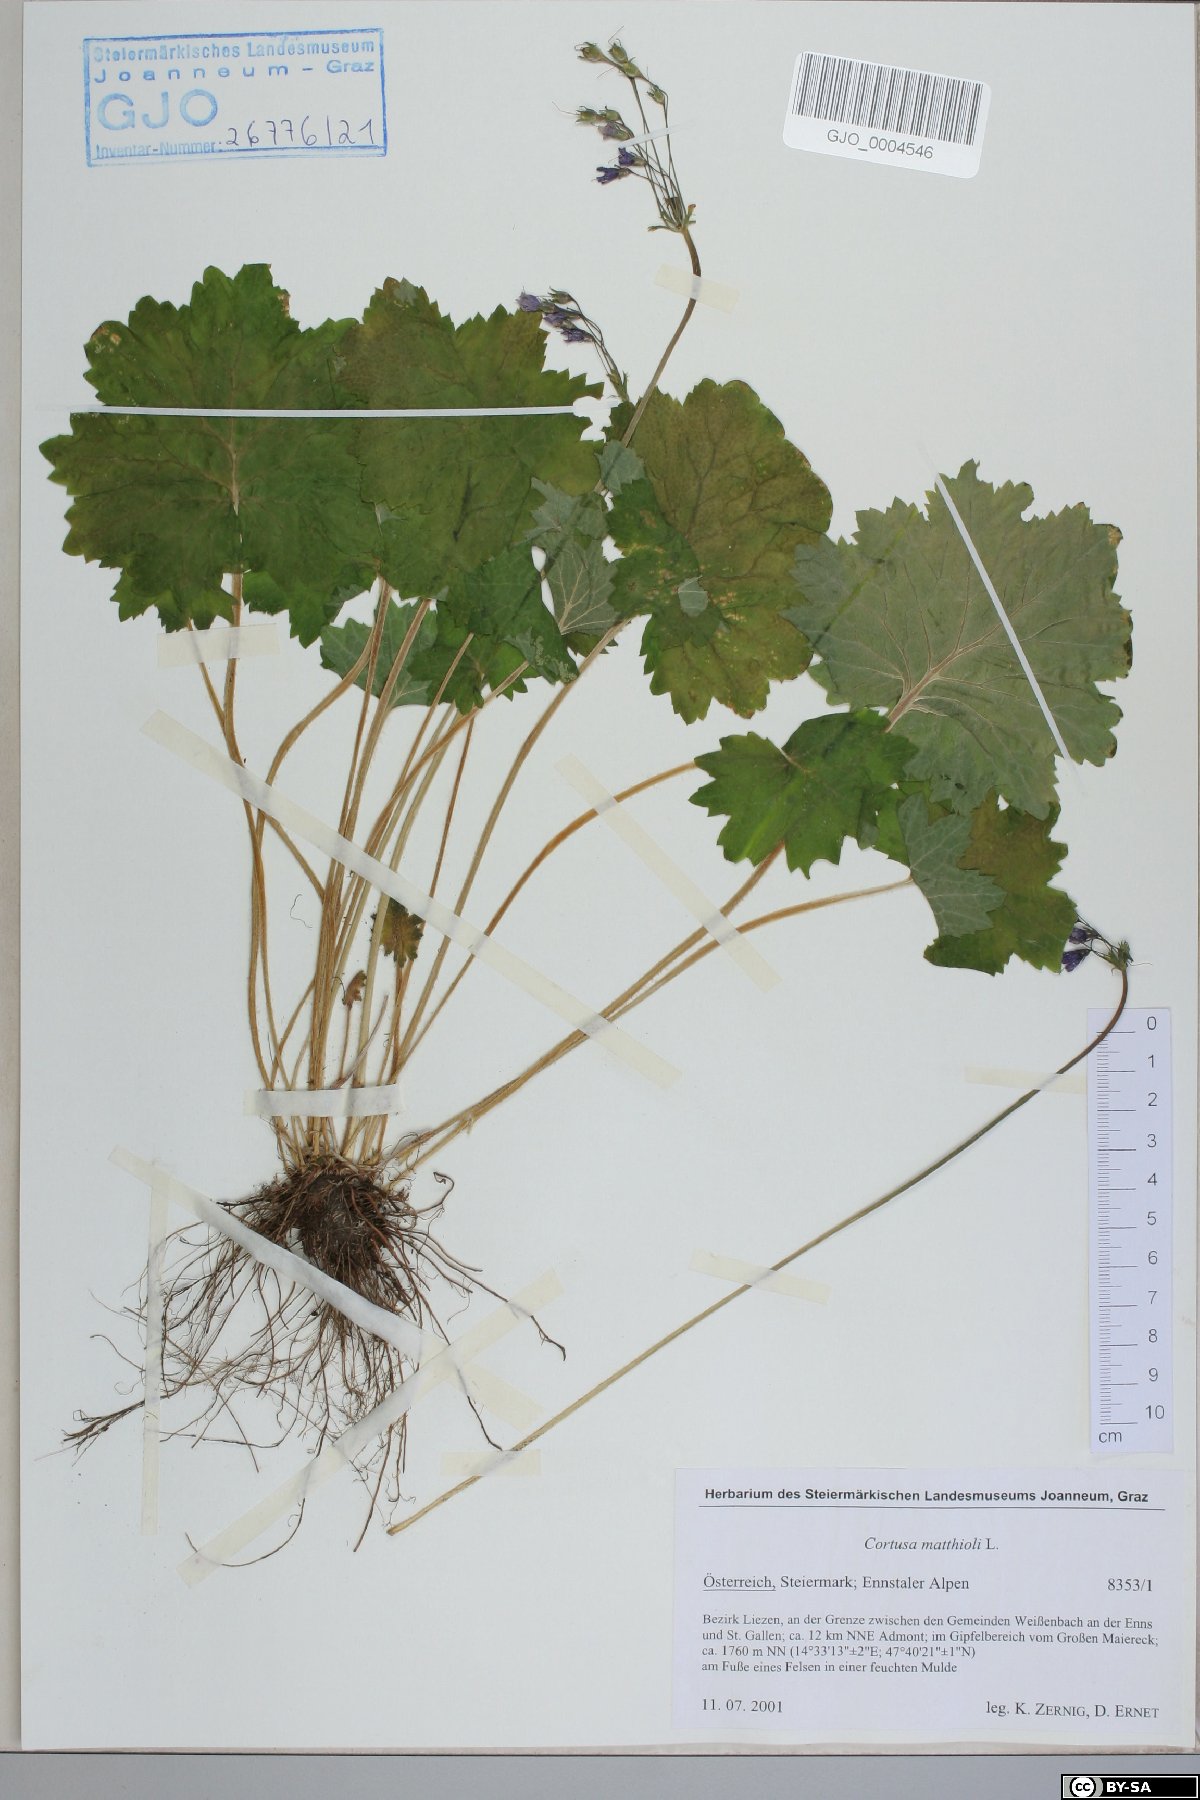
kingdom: Plantae
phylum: Tracheophyta
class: Magnoliopsida
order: Ericales
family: Primulaceae
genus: Primula
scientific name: Primula matthioli
